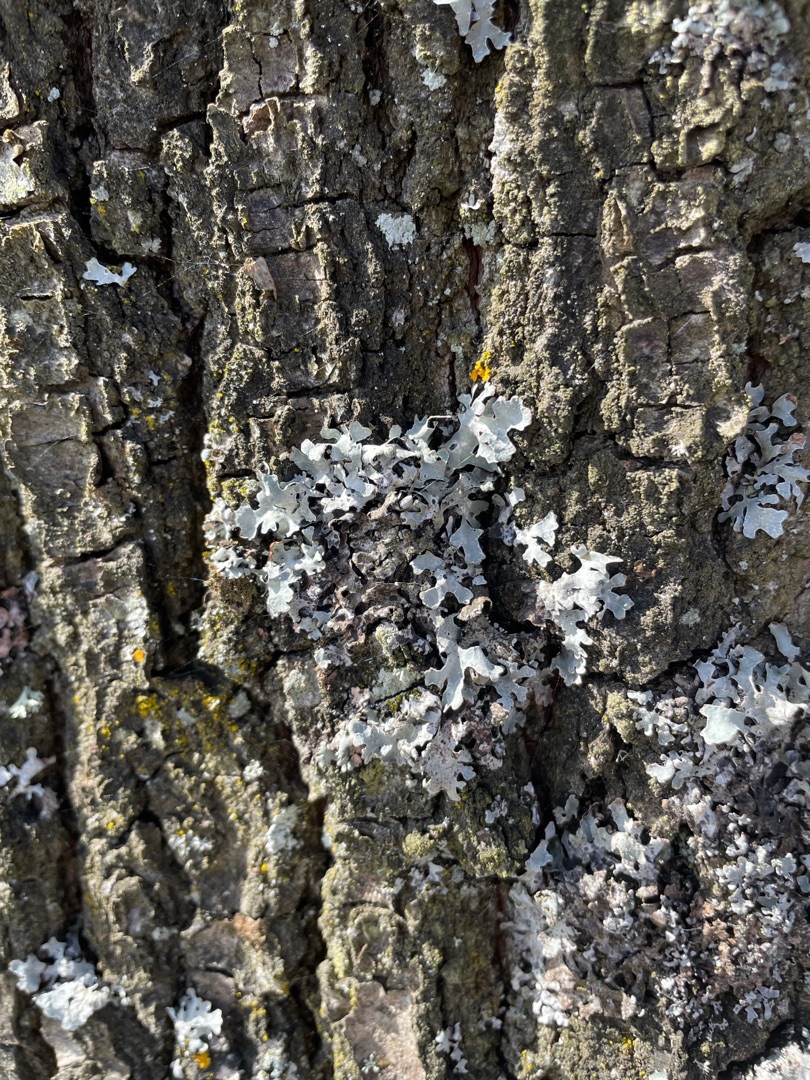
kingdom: Fungi
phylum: Ascomycota
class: Lecanoromycetes
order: Lecanorales
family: Parmeliaceae
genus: Parmelia
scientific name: Parmelia sulcata
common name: Rynket skållav
